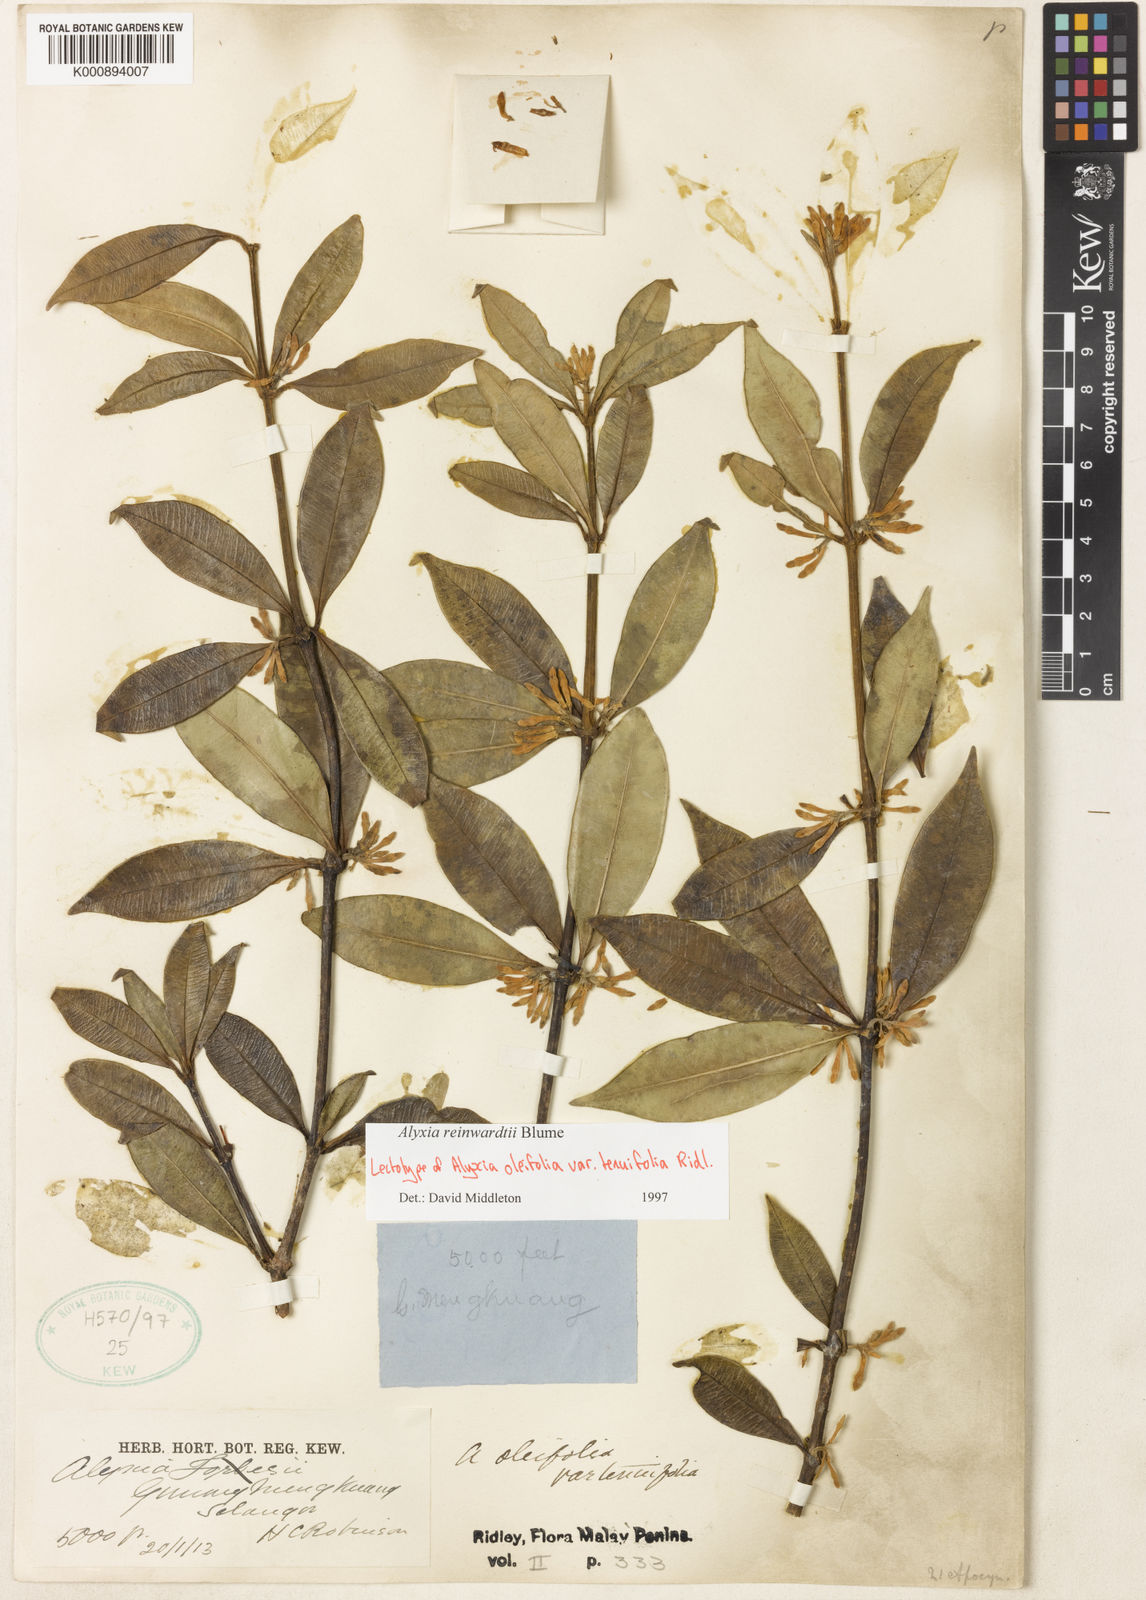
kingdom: Plantae
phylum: Tracheophyta
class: Magnoliopsida
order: Gentianales
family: Apocynaceae
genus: Alyxia
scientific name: Alyxia reinwardtii
